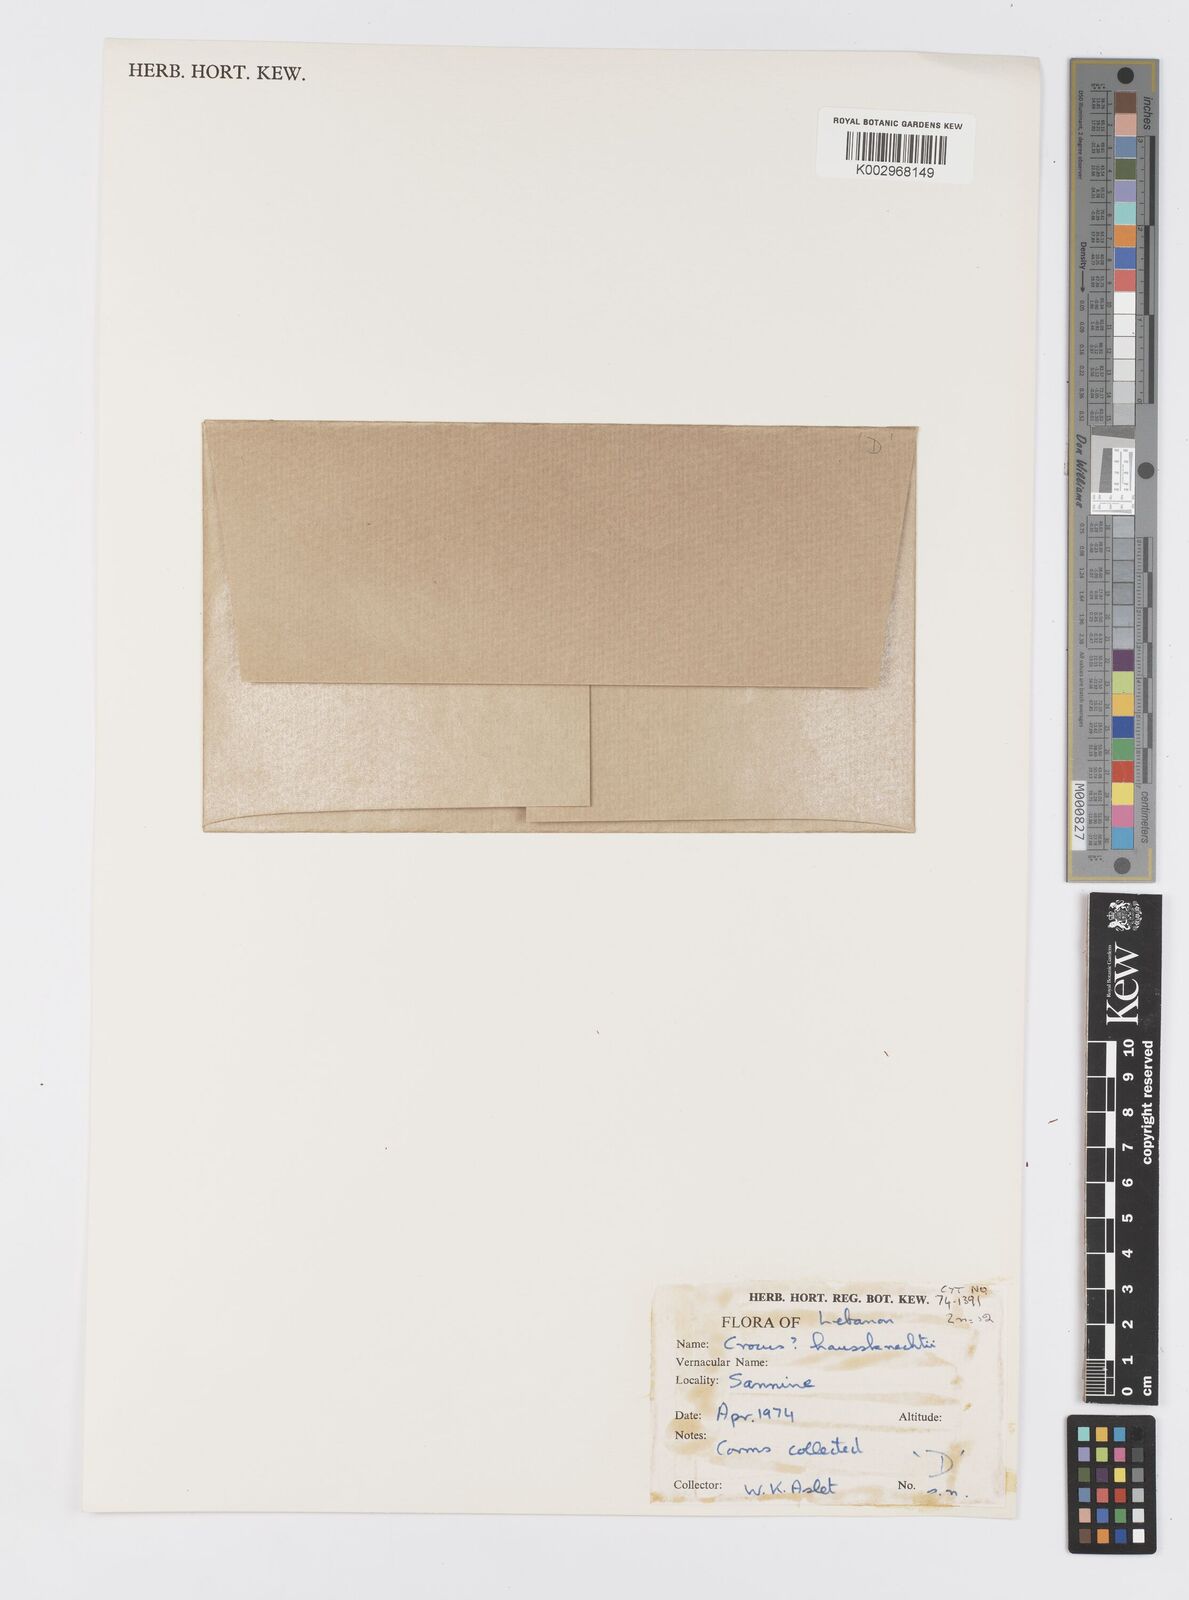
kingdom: Plantae
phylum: Tracheophyta
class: Liliopsida
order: Asparagales
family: Iridaceae
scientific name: Iridaceae
